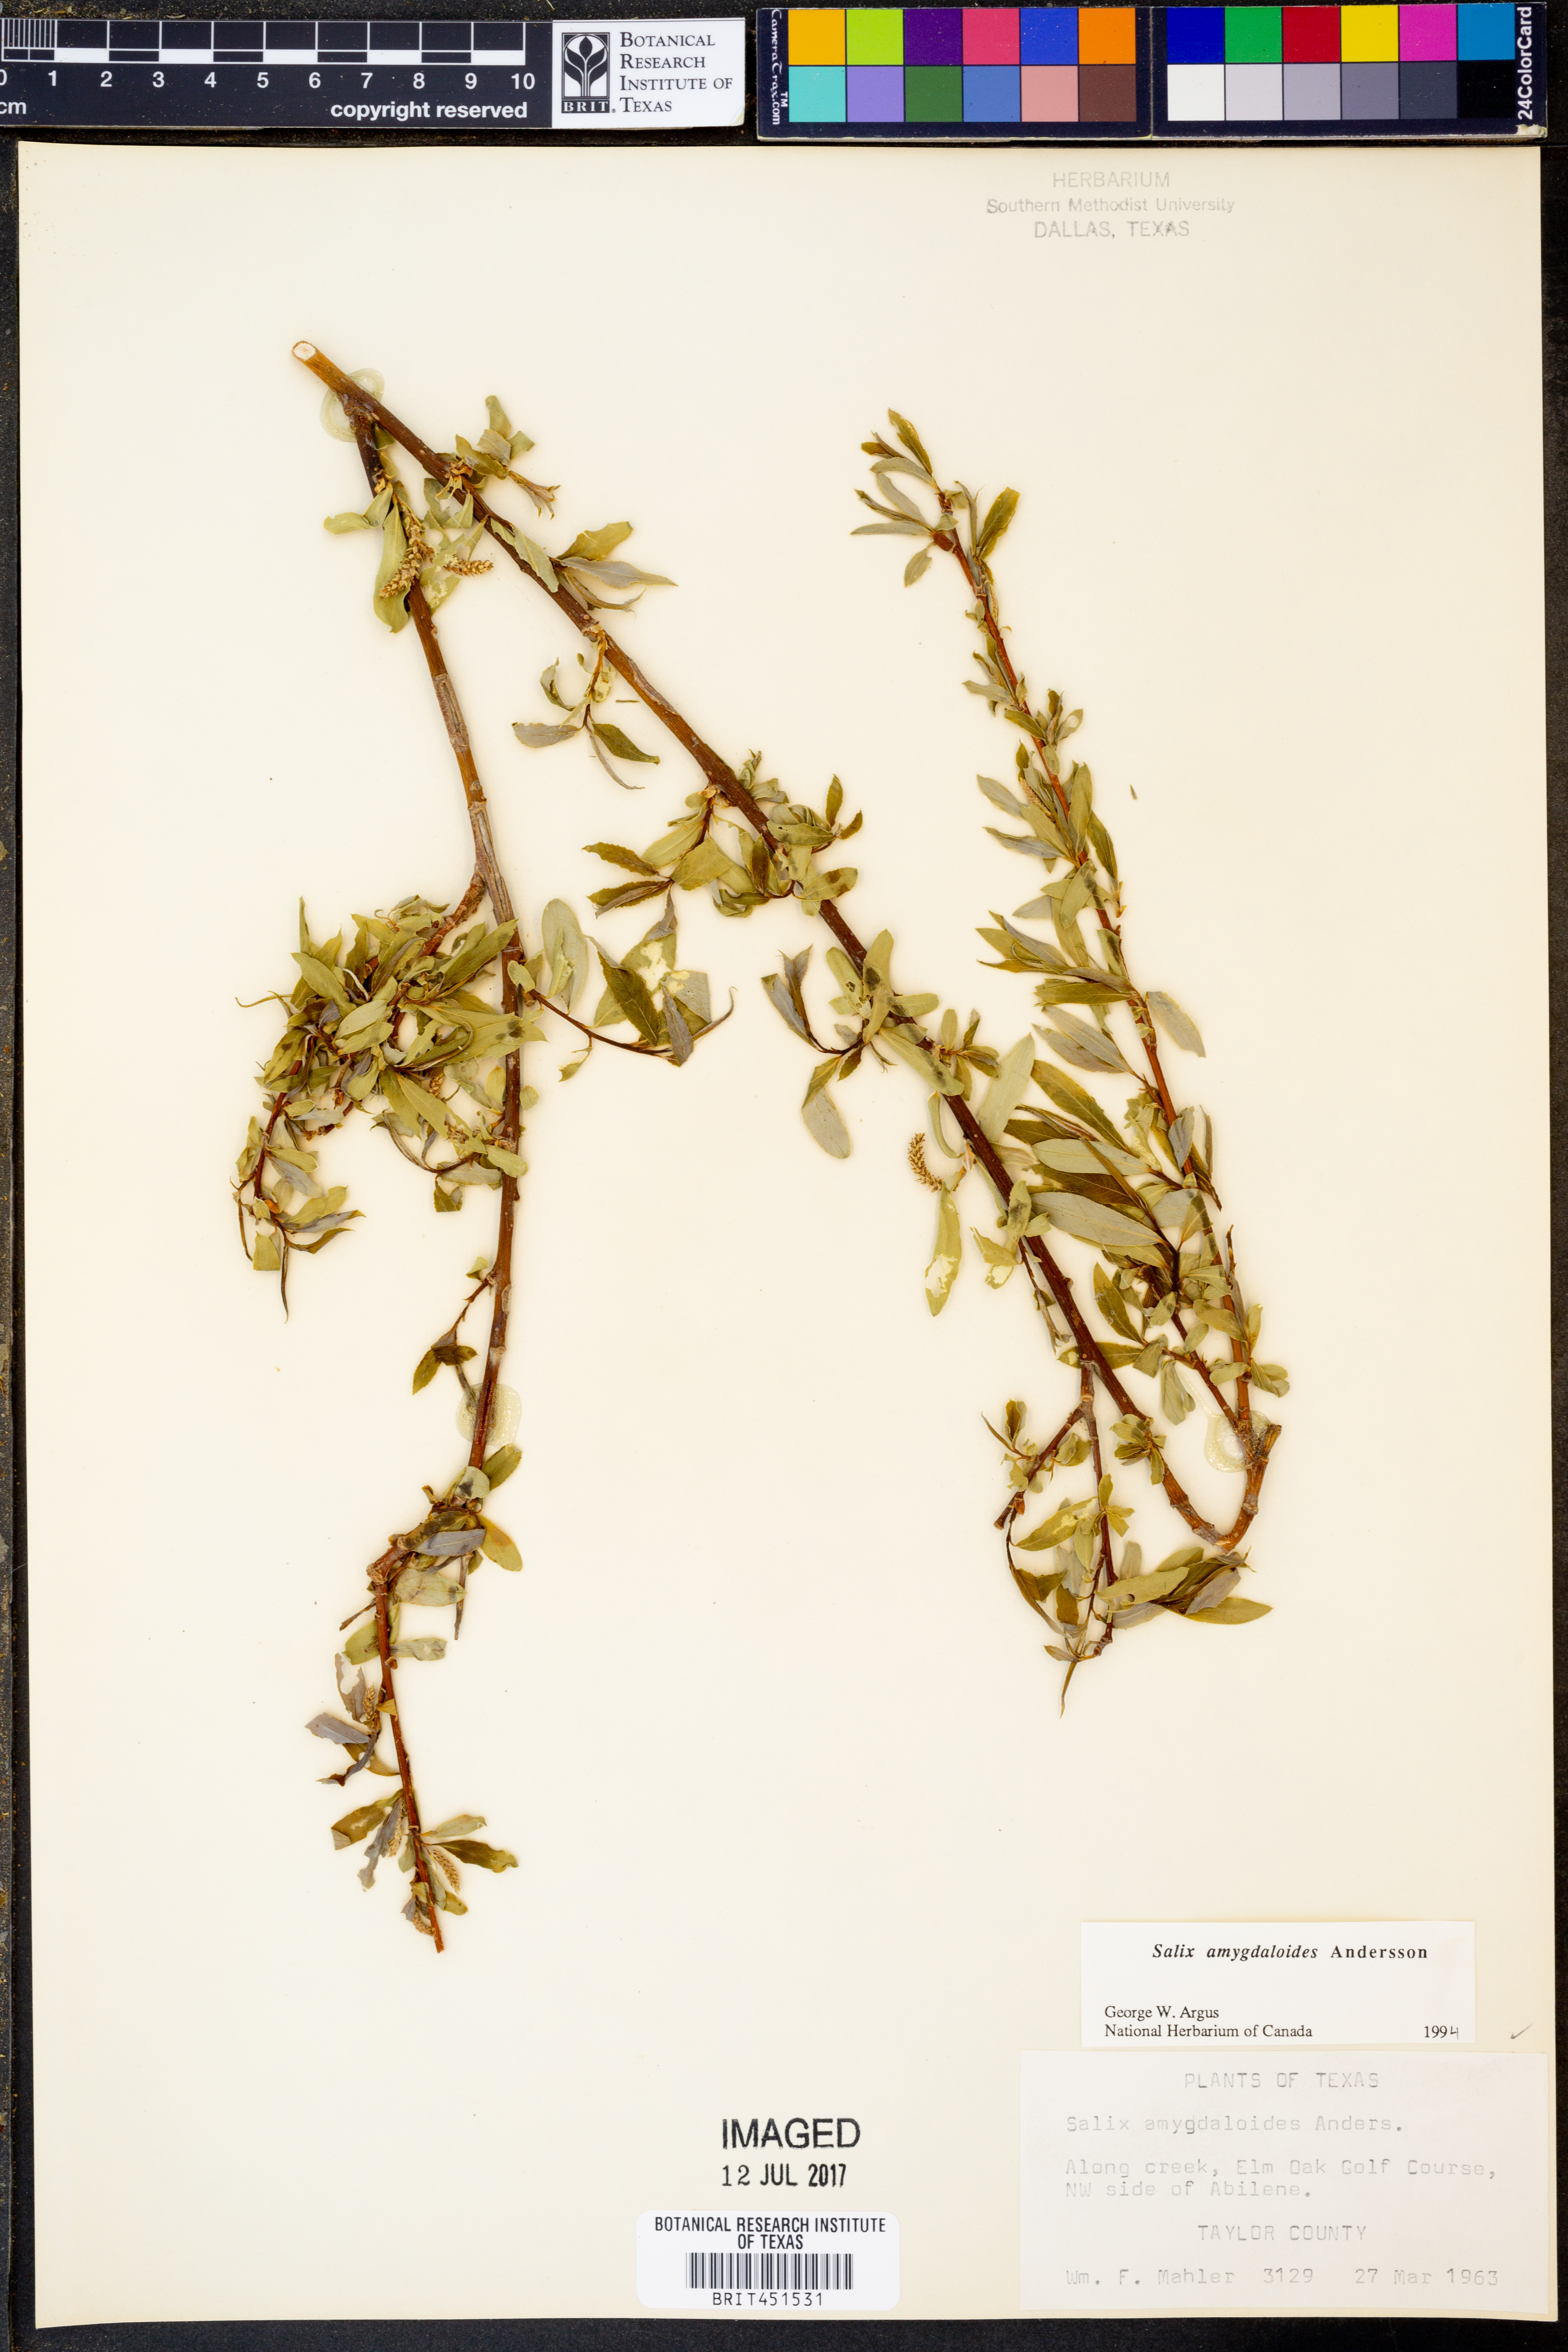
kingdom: Plantae
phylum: Tracheophyta
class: Magnoliopsida
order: Malpighiales
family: Salicaceae
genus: Salix
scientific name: Salix amygdaloides
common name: Peach leaf willow
